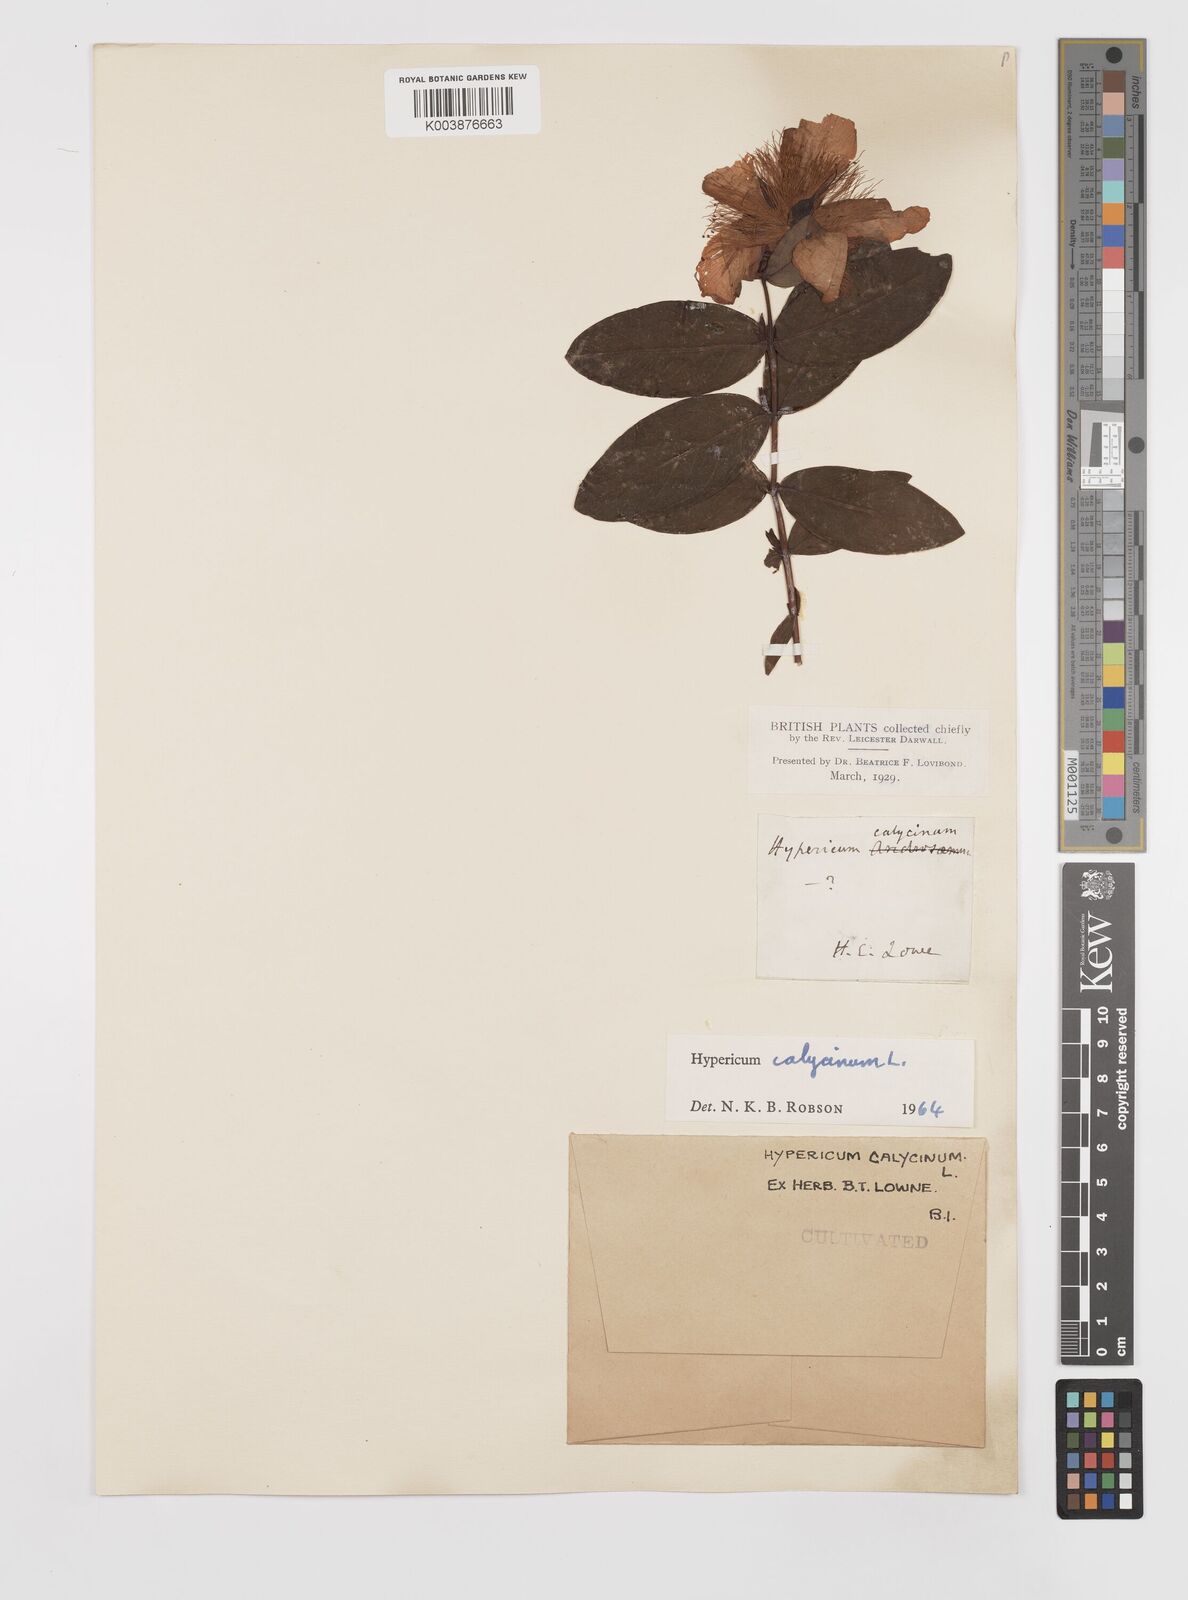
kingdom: Plantae
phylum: Tracheophyta
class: Magnoliopsida
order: Malpighiales
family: Hypericaceae
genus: Hypericum
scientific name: Hypericum calycinum
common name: Rose-of-sharon
